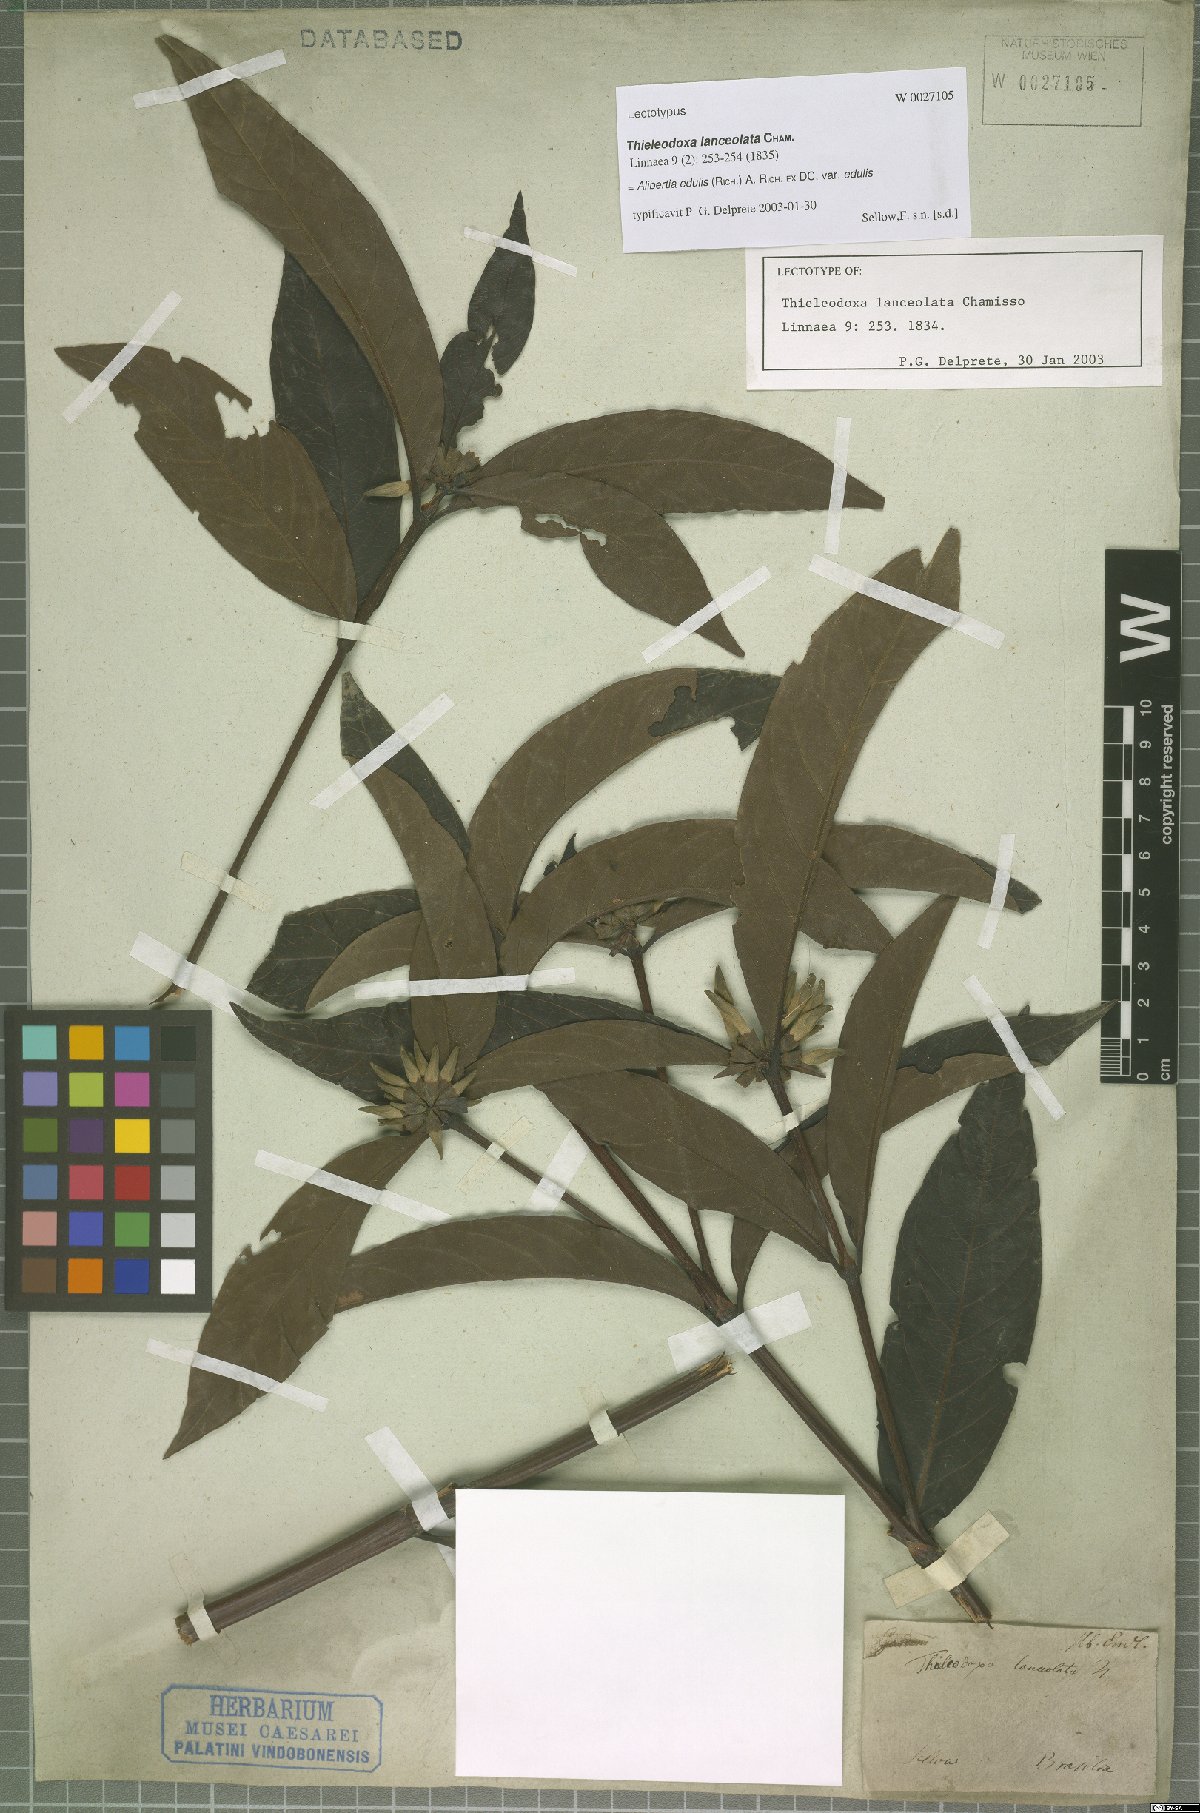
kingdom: Plantae
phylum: Tracheophyta
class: Magnoliopsida
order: Gentianales
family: Rubiaceae
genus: Alibertia
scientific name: Alibertia edulis
